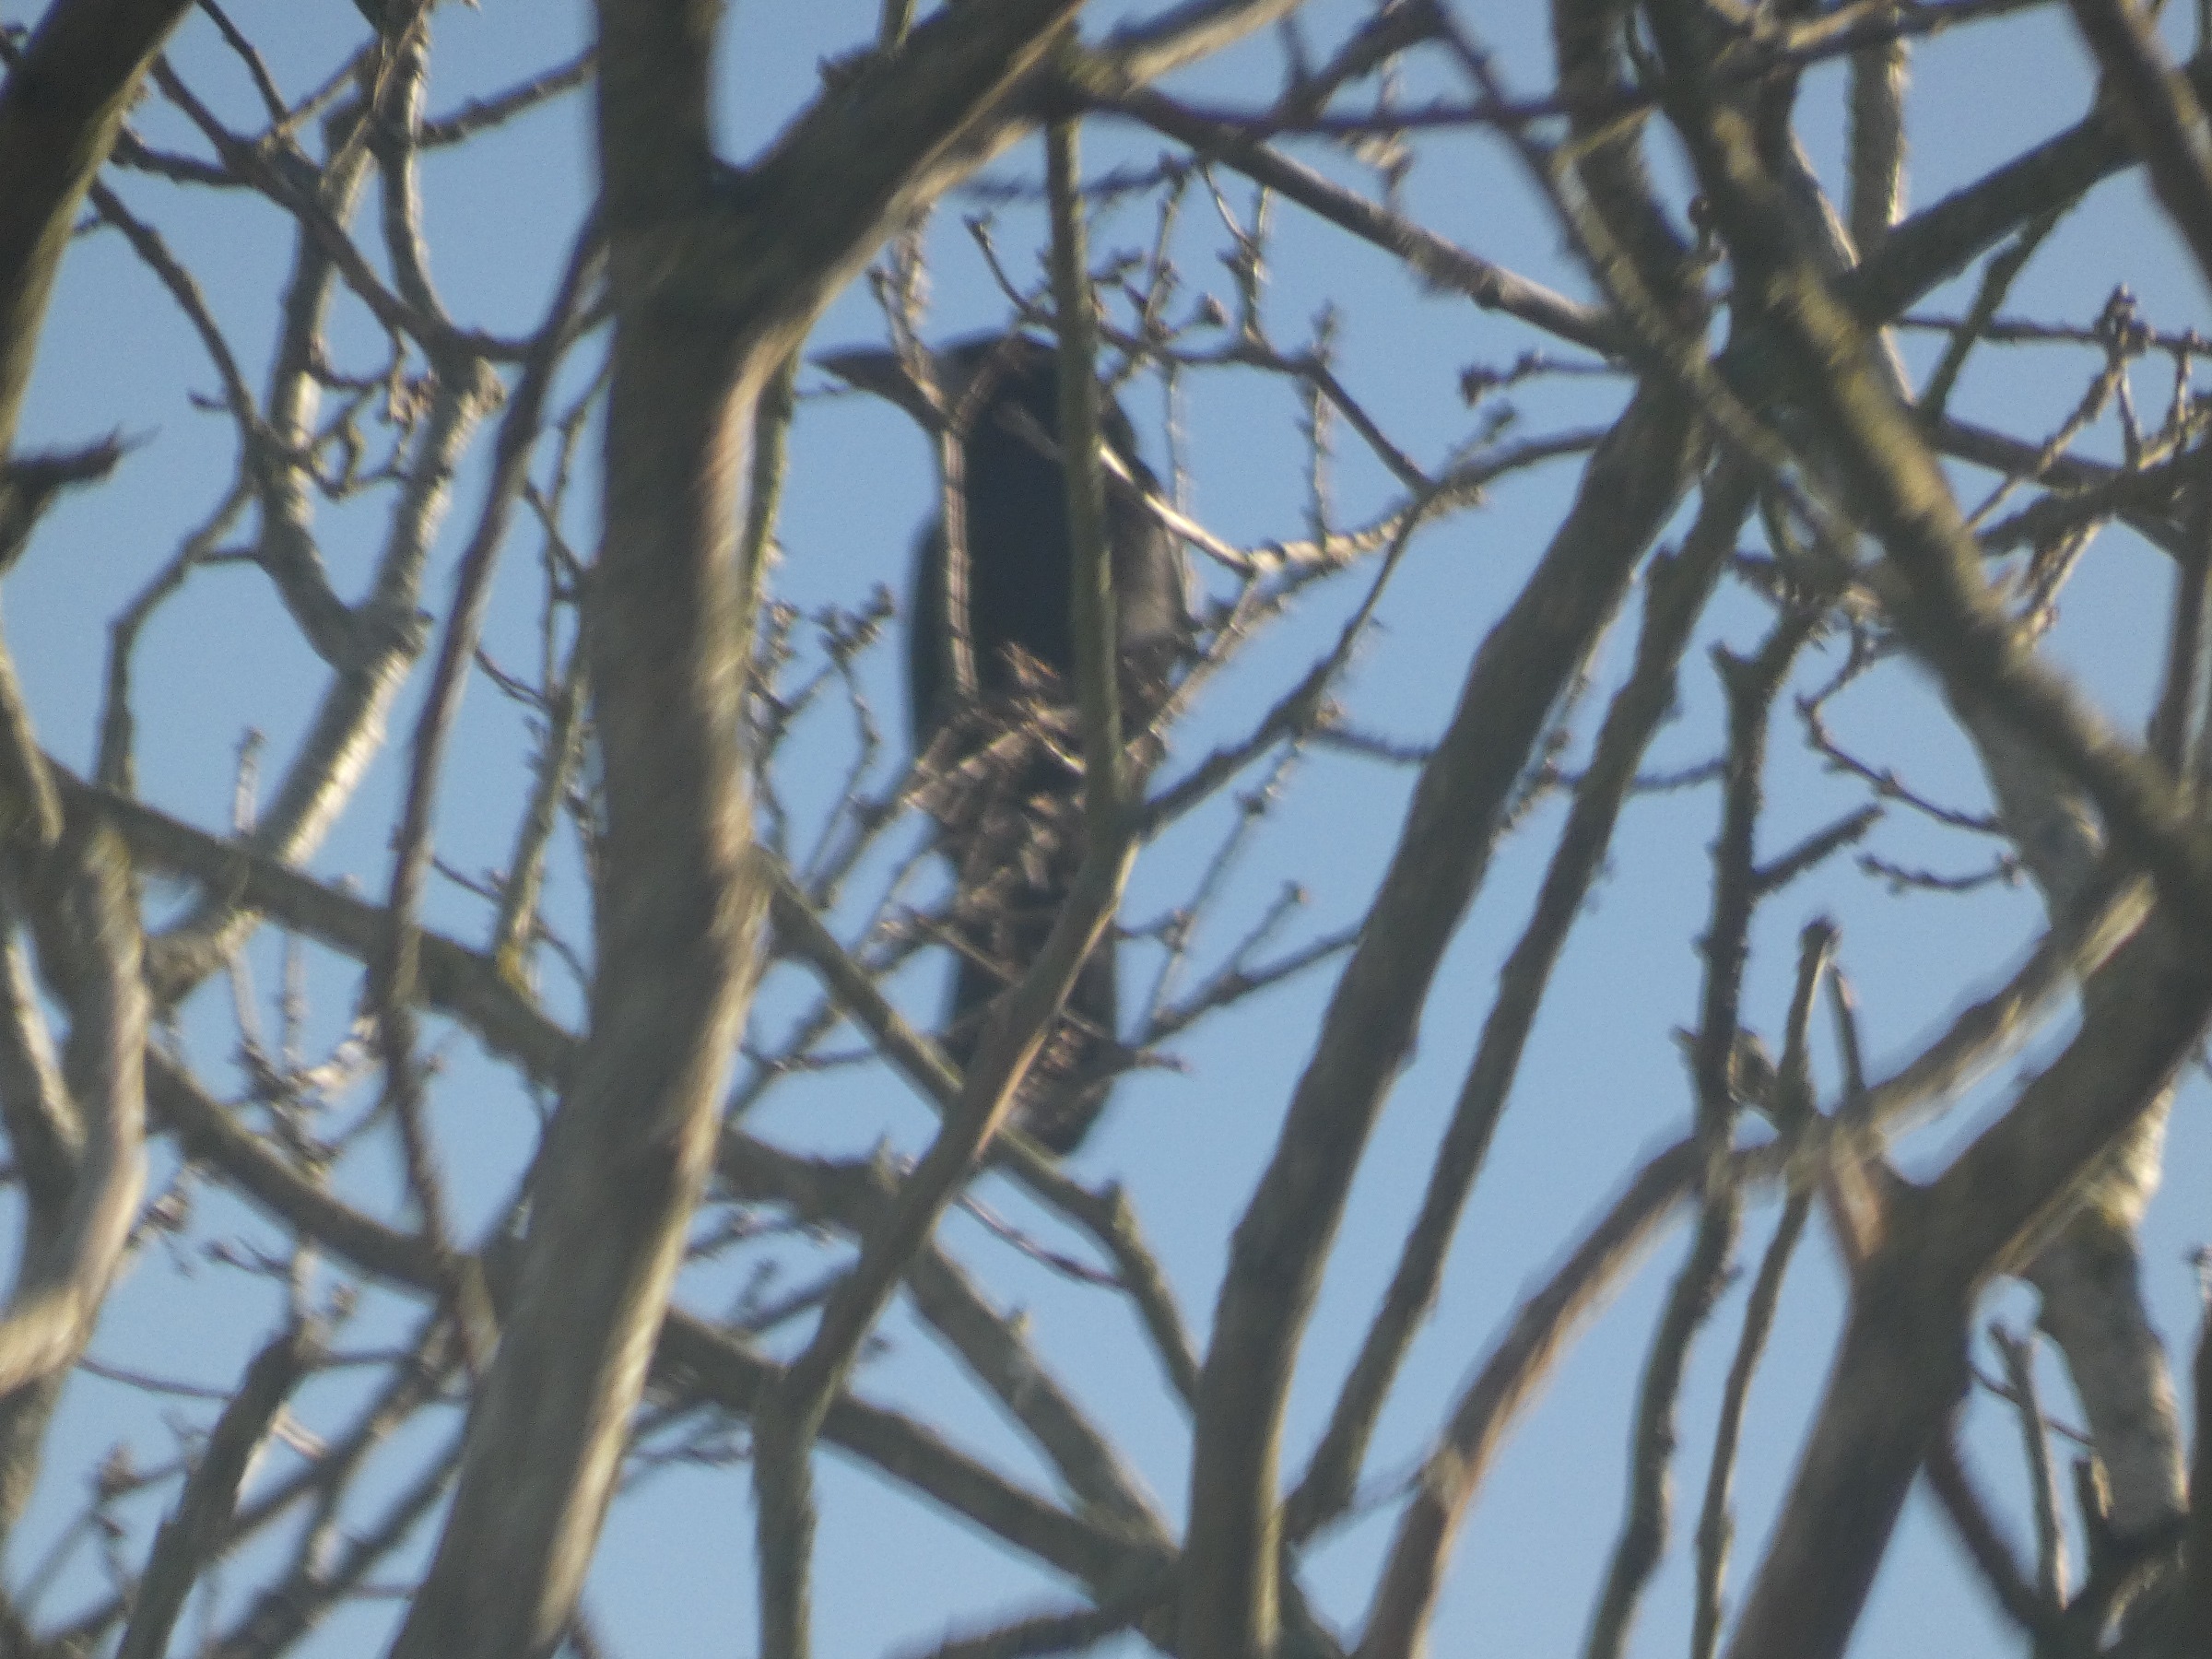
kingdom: Animalia
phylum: Chordata
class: Aves
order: Passeriformes
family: Corvidae
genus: Corvus
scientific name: Corvus frugilegus
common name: Råge
